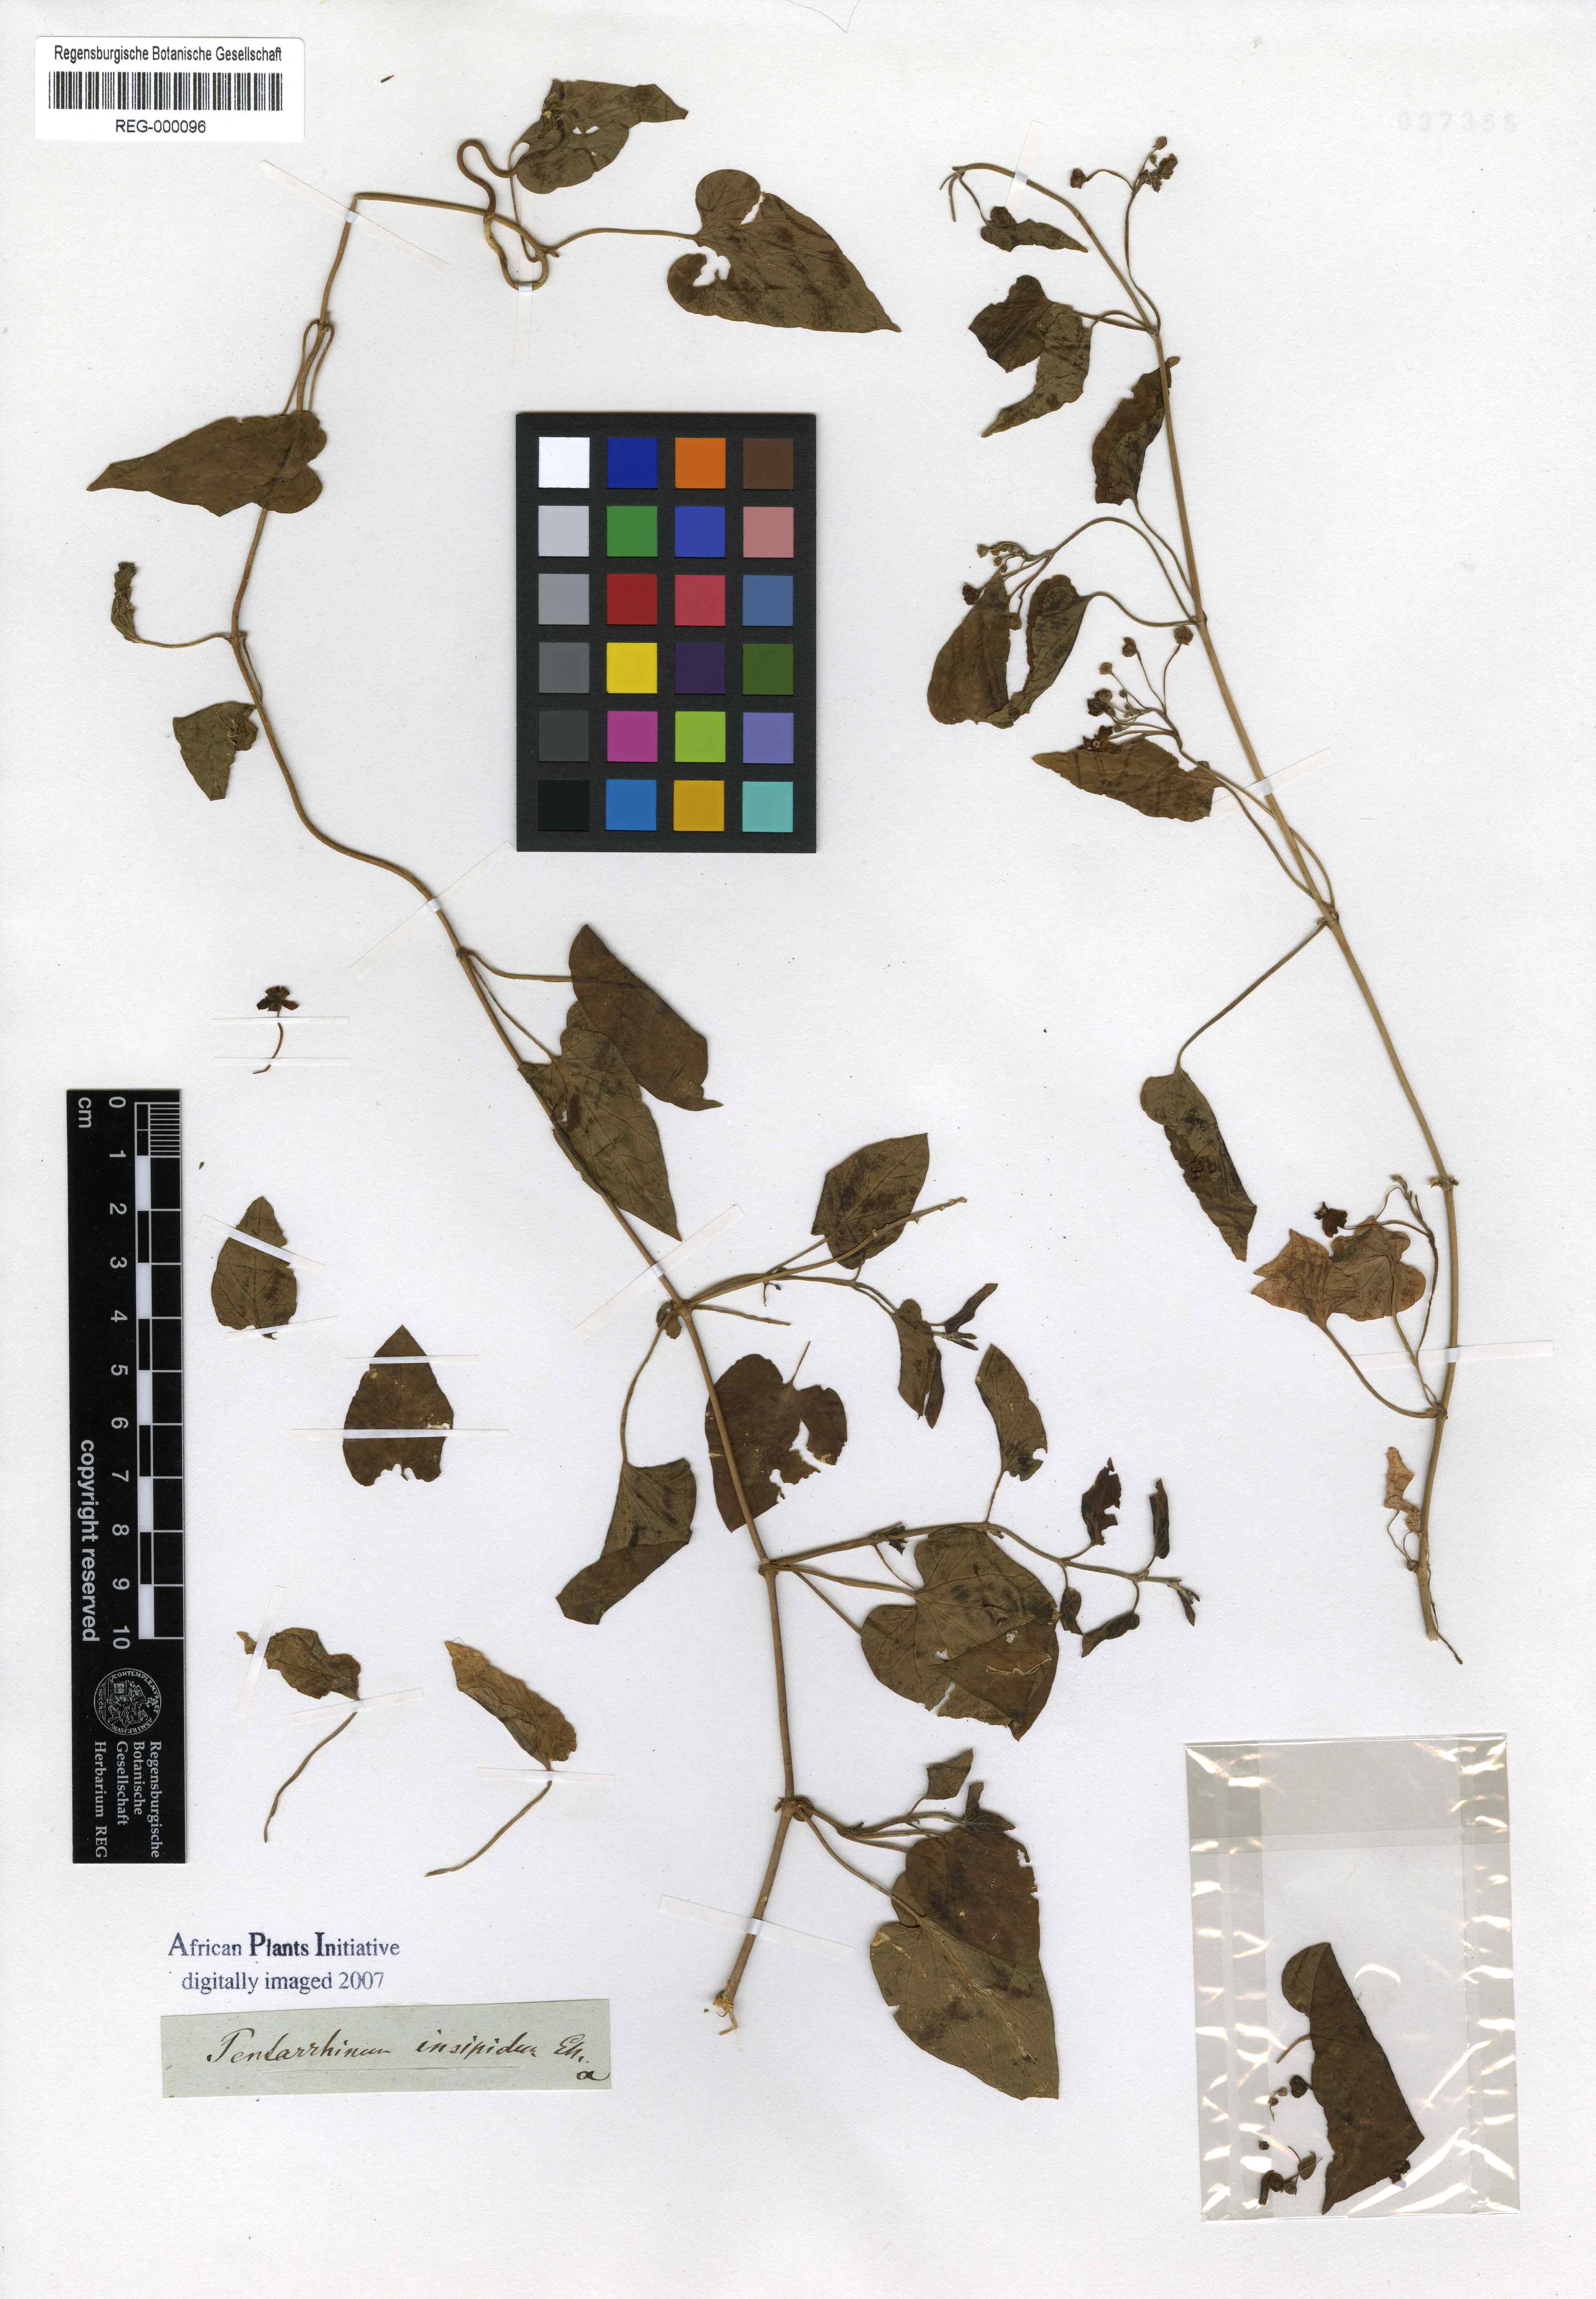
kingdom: Plantae
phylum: Tracheophyta
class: Magnoliopsida
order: Gentianales
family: Apocynaceae
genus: Cynanchum
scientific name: Cynanchum insipidum
